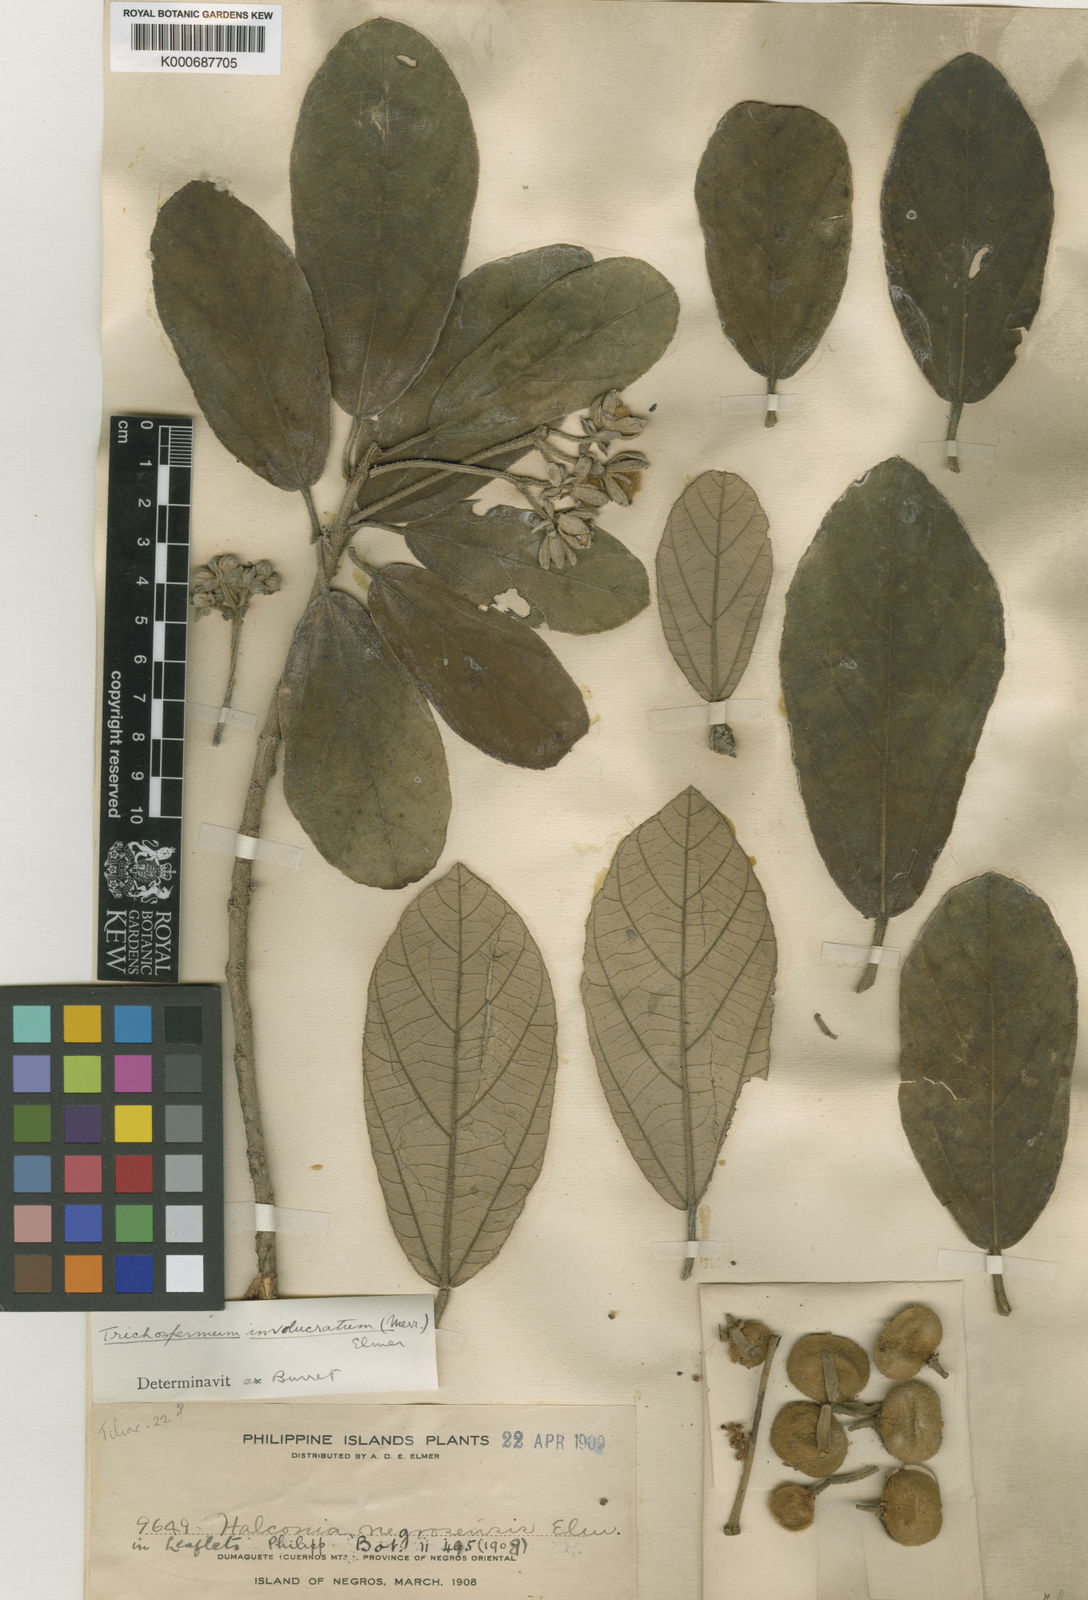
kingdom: Plantae
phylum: Tracheophyta
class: Magnoliopsida
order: Malvales
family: Malvaceae
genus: Trichospermum
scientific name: Trichospermum involucratum
